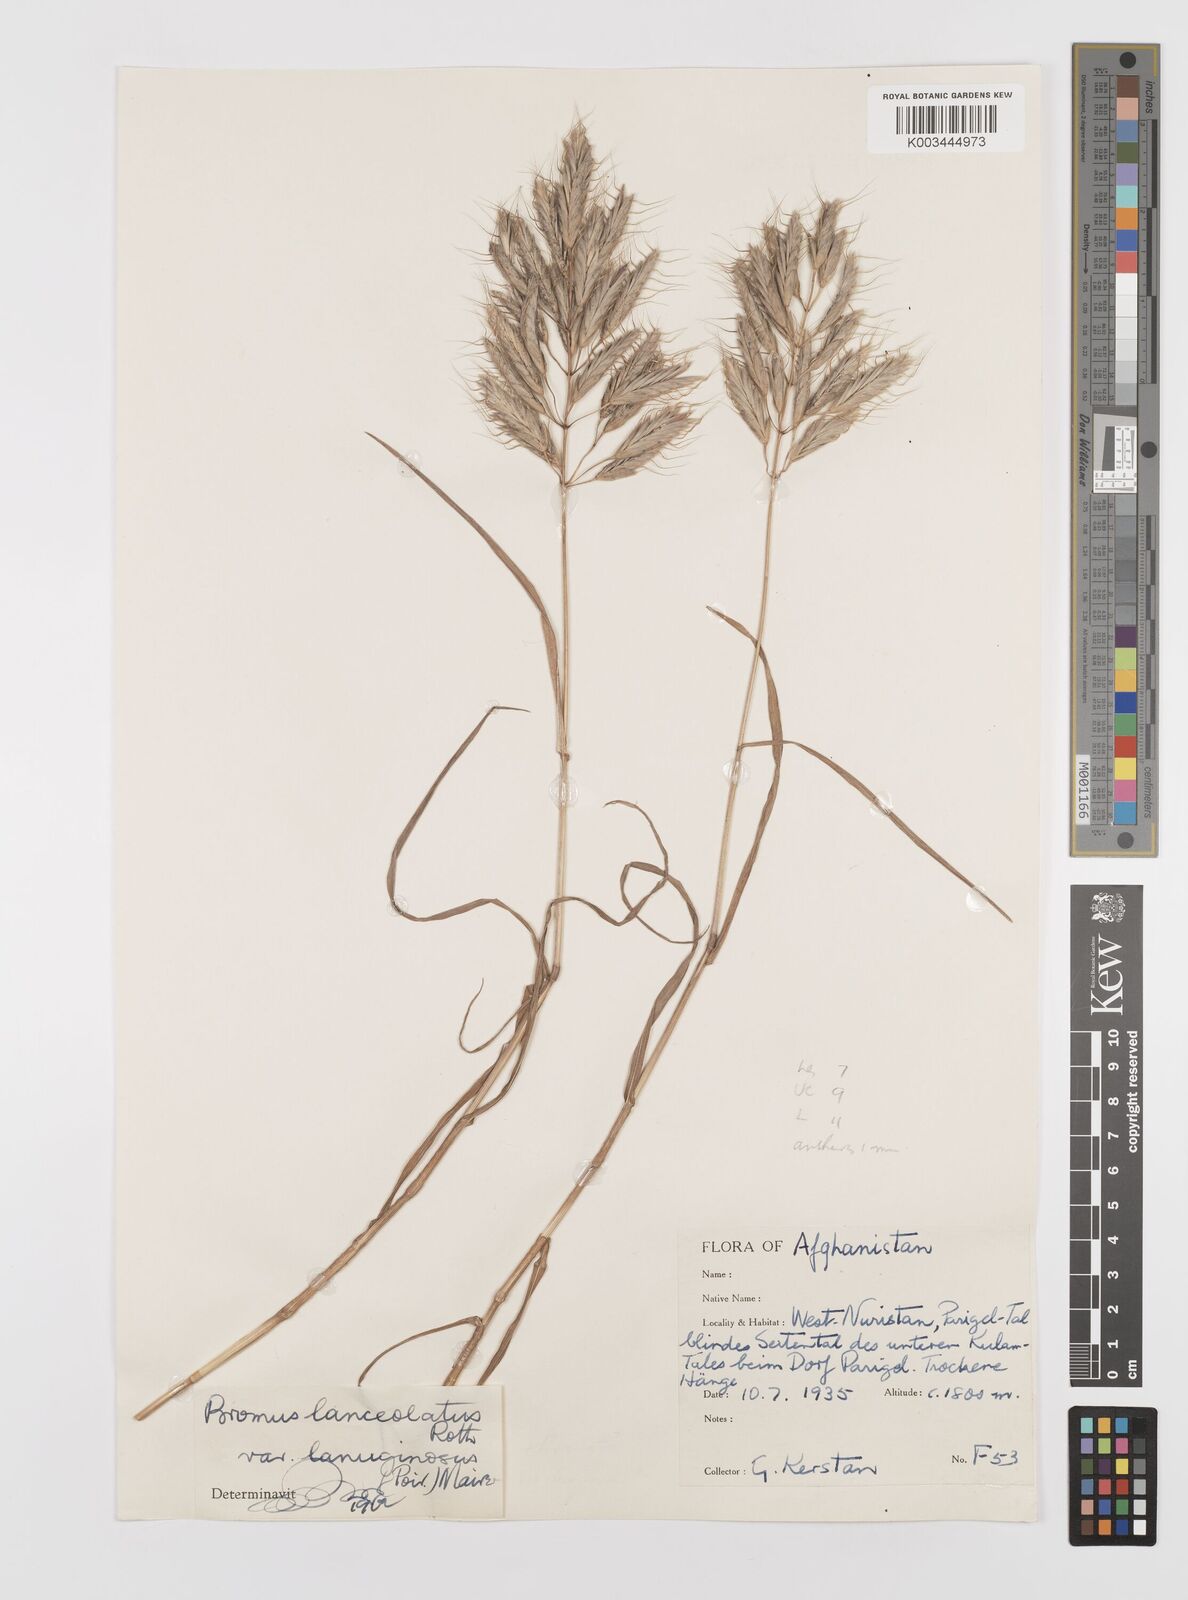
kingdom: Plantae
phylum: Tracheophyta
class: Liliopsida
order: Poales
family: Poaceae
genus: Bromus
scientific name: Bromus lanceolatus
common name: Mediterranean brome
